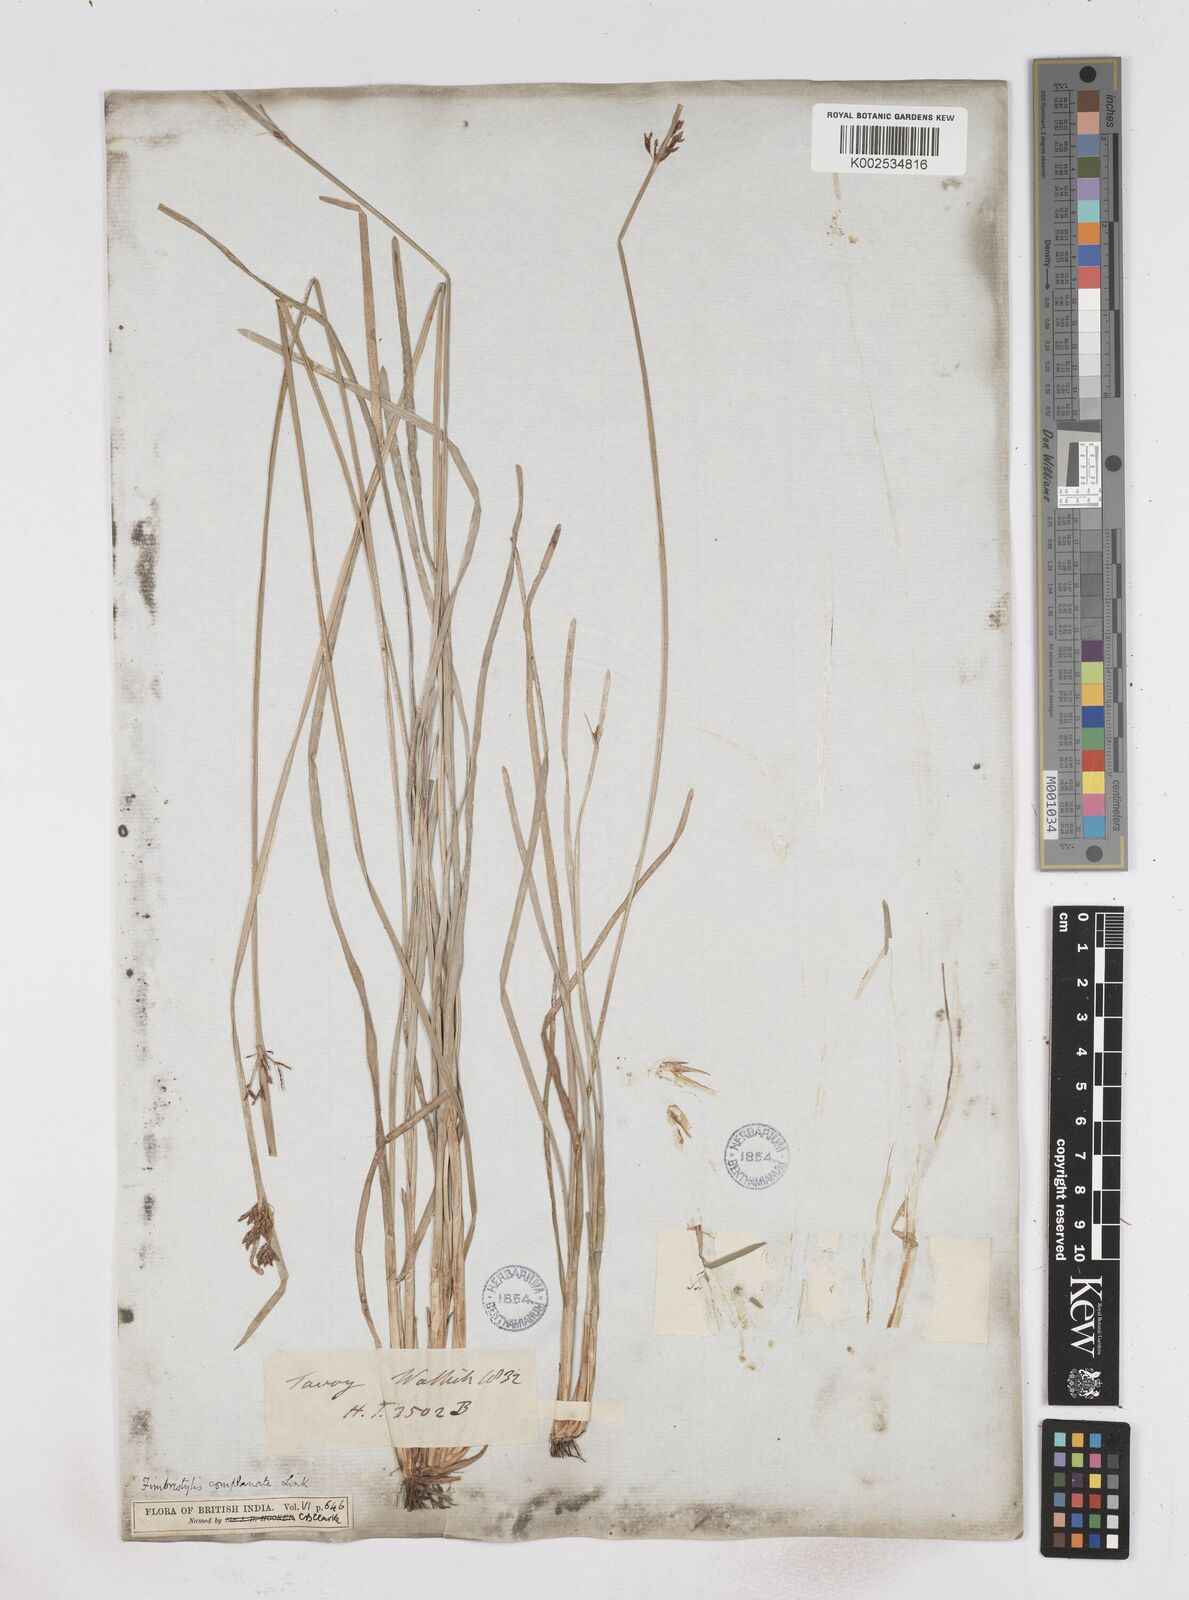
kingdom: Plantae
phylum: Tracheophyta
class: Liliopsida
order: Poales
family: Cyperaceae
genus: Fimbristylis
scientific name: Fimbristylis complanata
